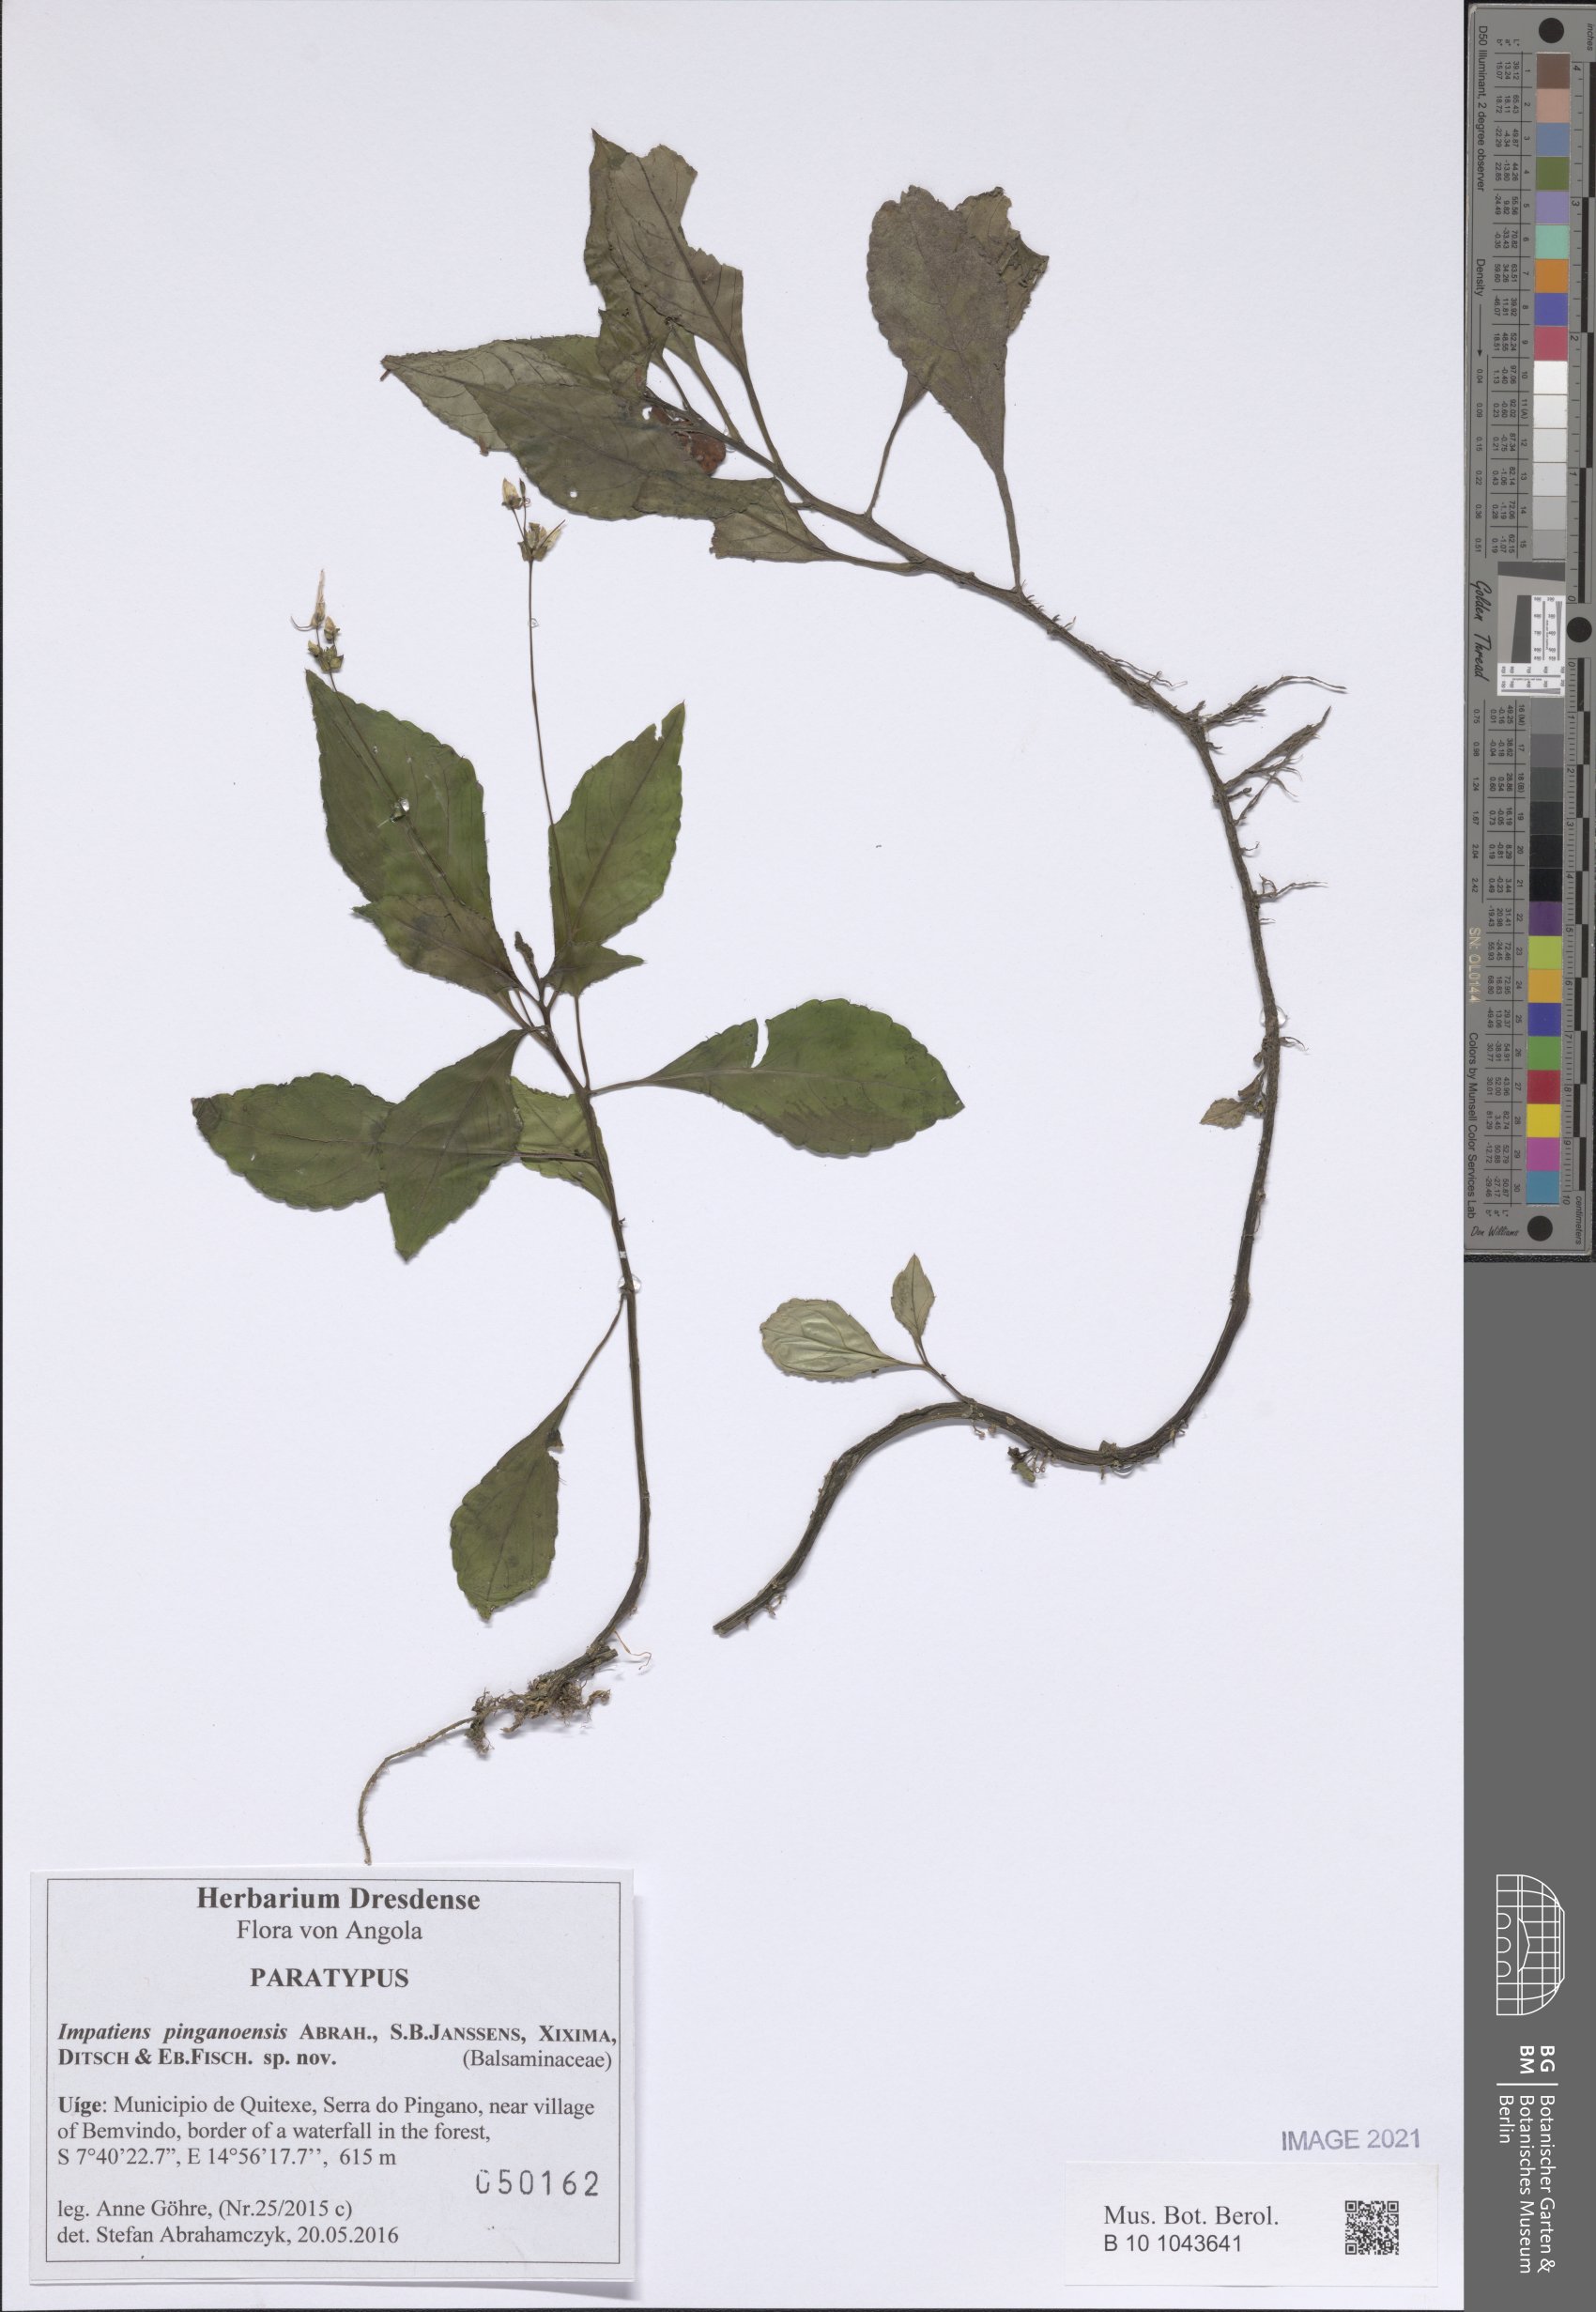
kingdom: Plantae
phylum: Tracheophyta
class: Magnoliopsida
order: Ericales
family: Balsaminaceae
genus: Impatiens
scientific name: Impatiens pinganoensis
